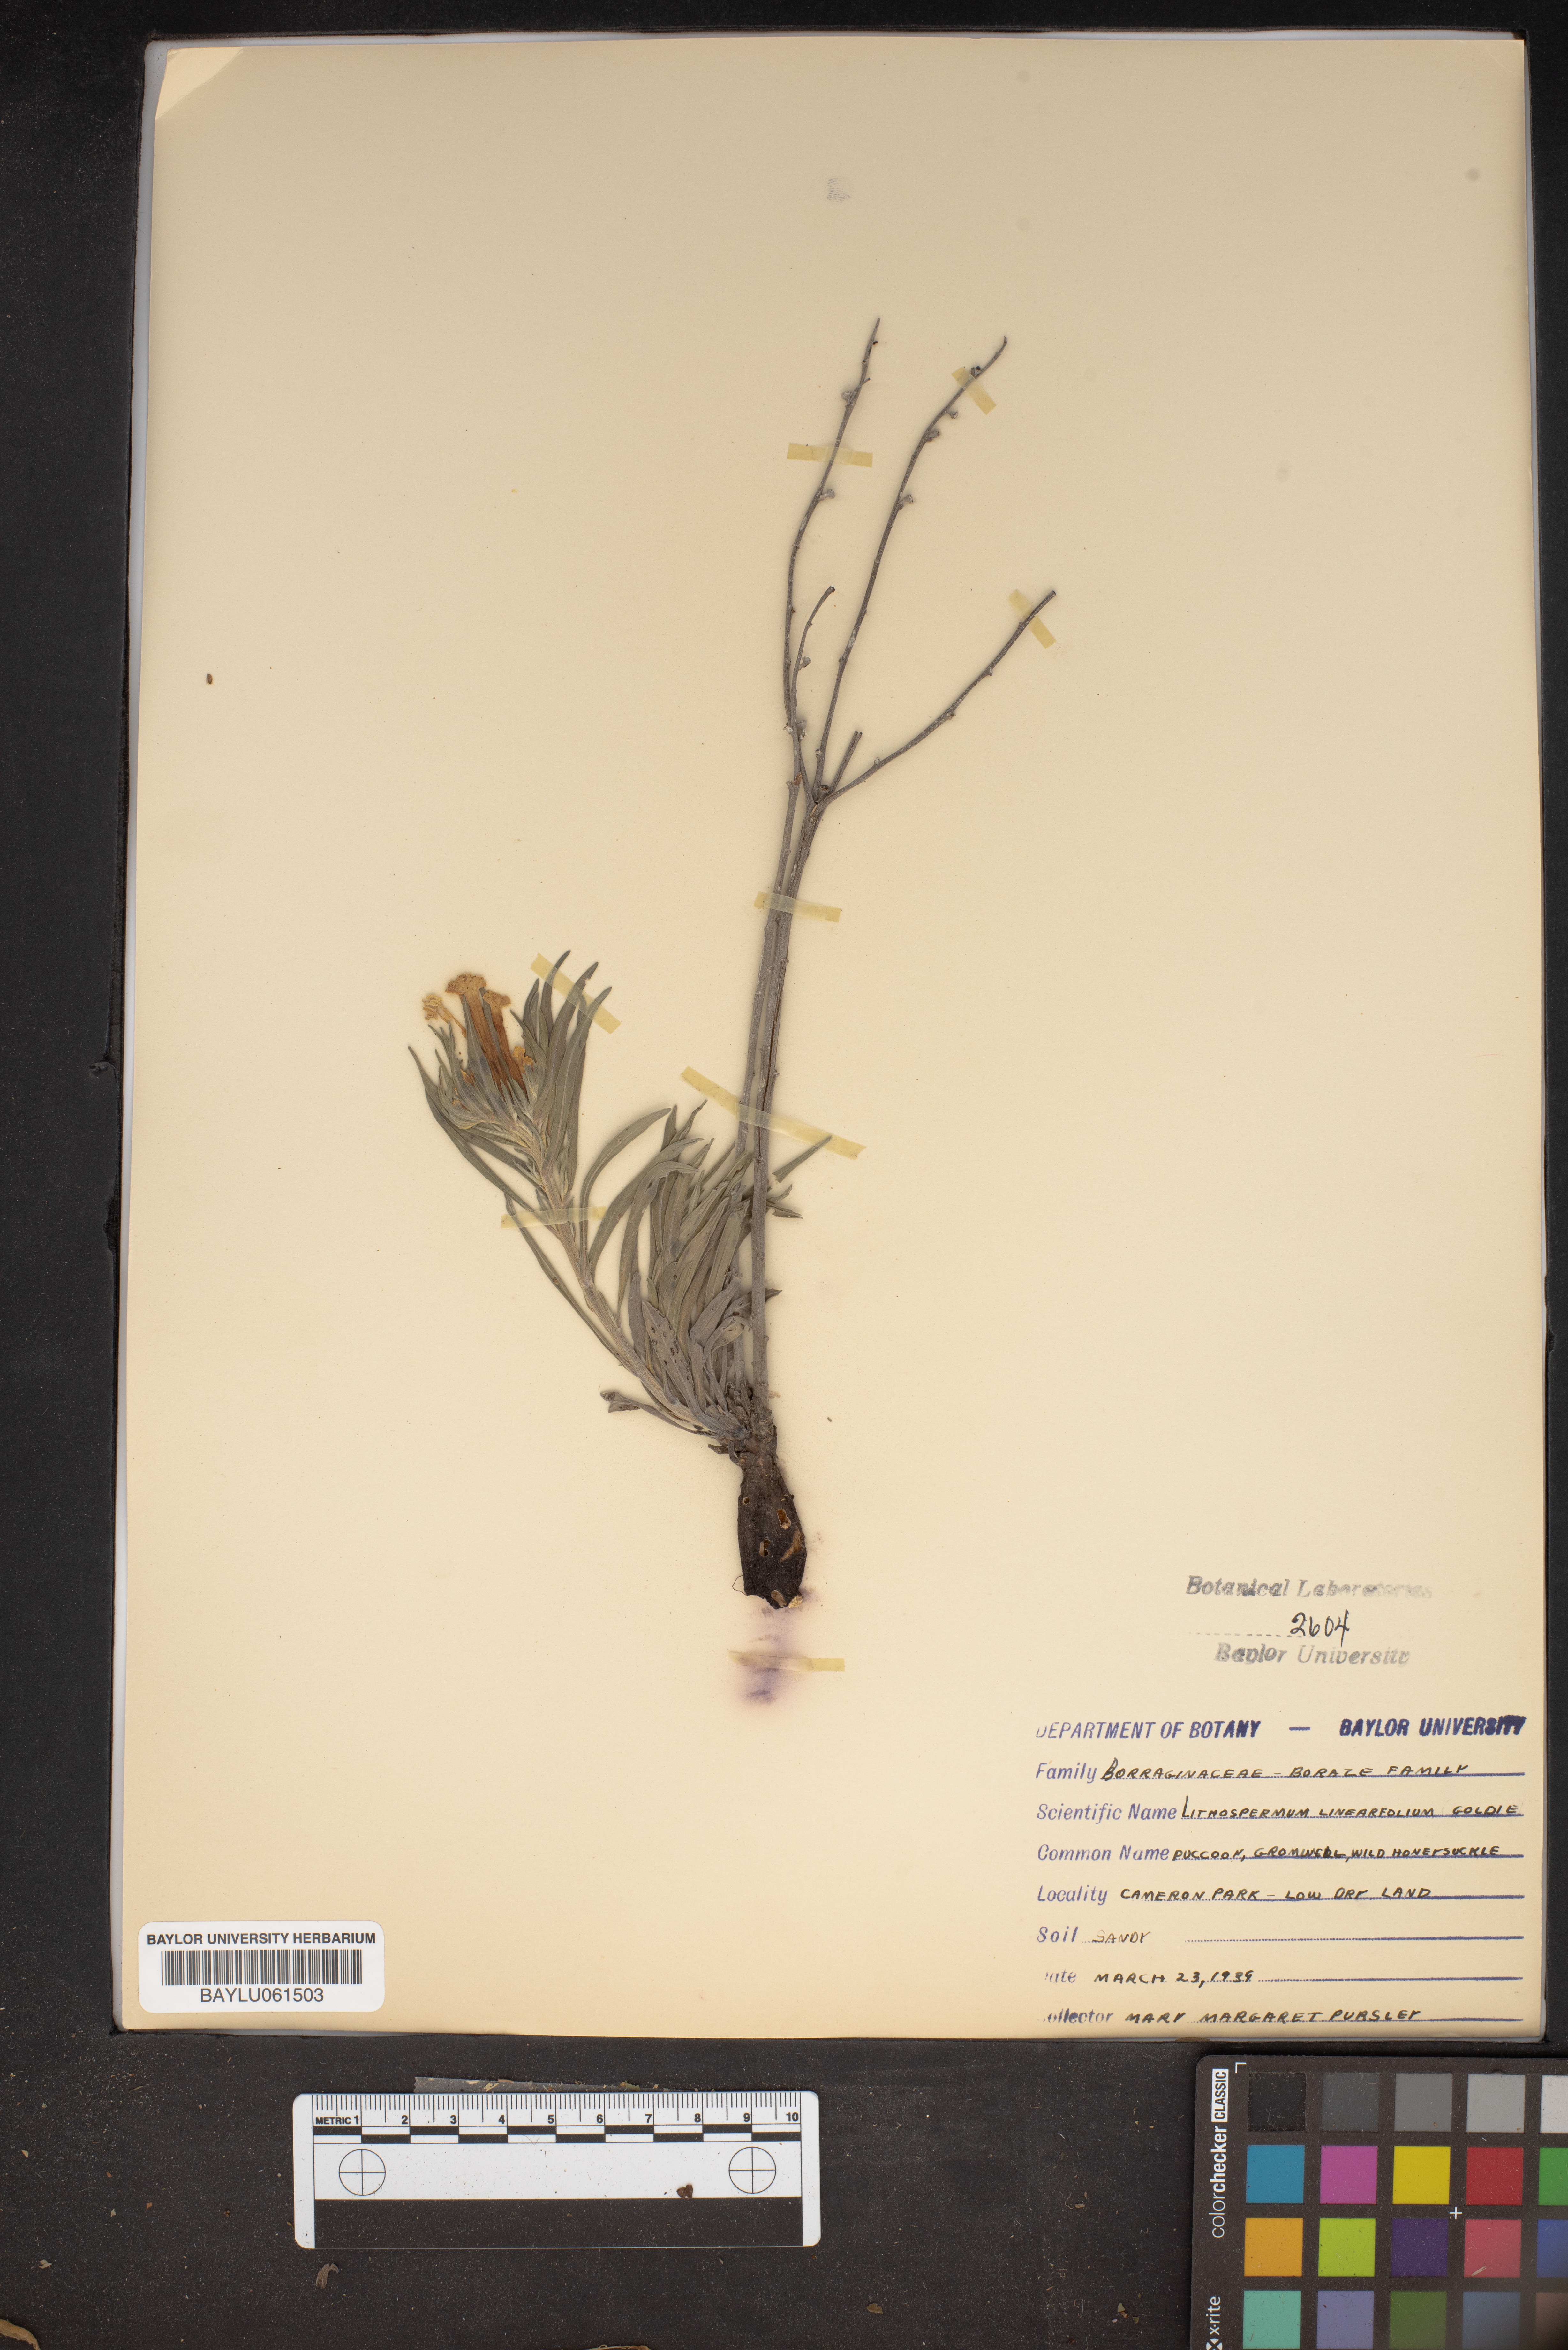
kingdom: Plantae
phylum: Tracheophyta
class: Magnoliopsida
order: Boraginales
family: Boraginaceae
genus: Lithospermum
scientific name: Lithospermum incisum
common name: Fringed gromwell
